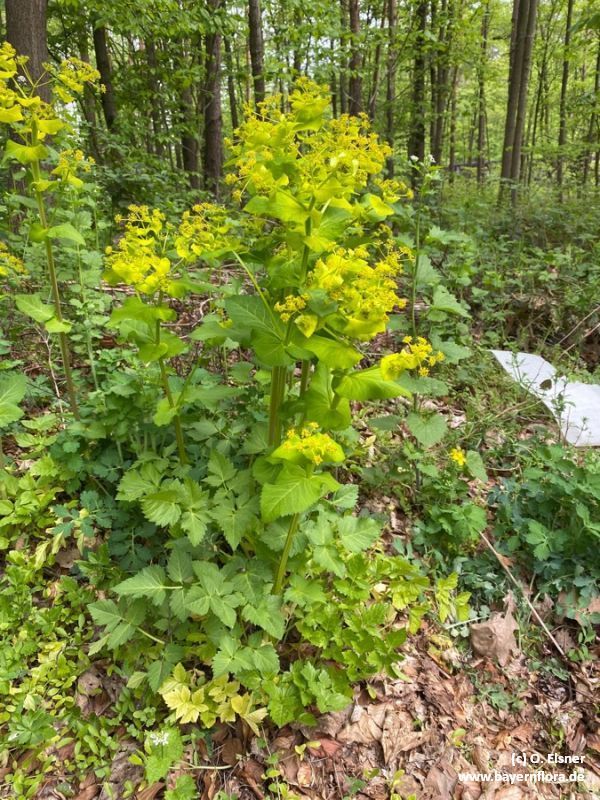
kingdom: Plantae
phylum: Tracheophyta
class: Magnoliopsida
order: Apiales
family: Apiaceae
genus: Smyrnium
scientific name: Smyrnium perfoliatum
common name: Perfoliate alexanders
